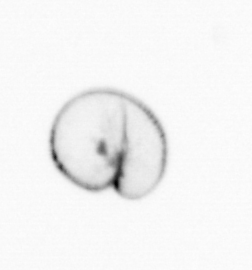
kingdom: Chromista
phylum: Myzozoa
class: Dinophyceae
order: Noctilucales
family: Noctilucaceae
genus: Noctiluca
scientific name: Noctiluca scintillans
